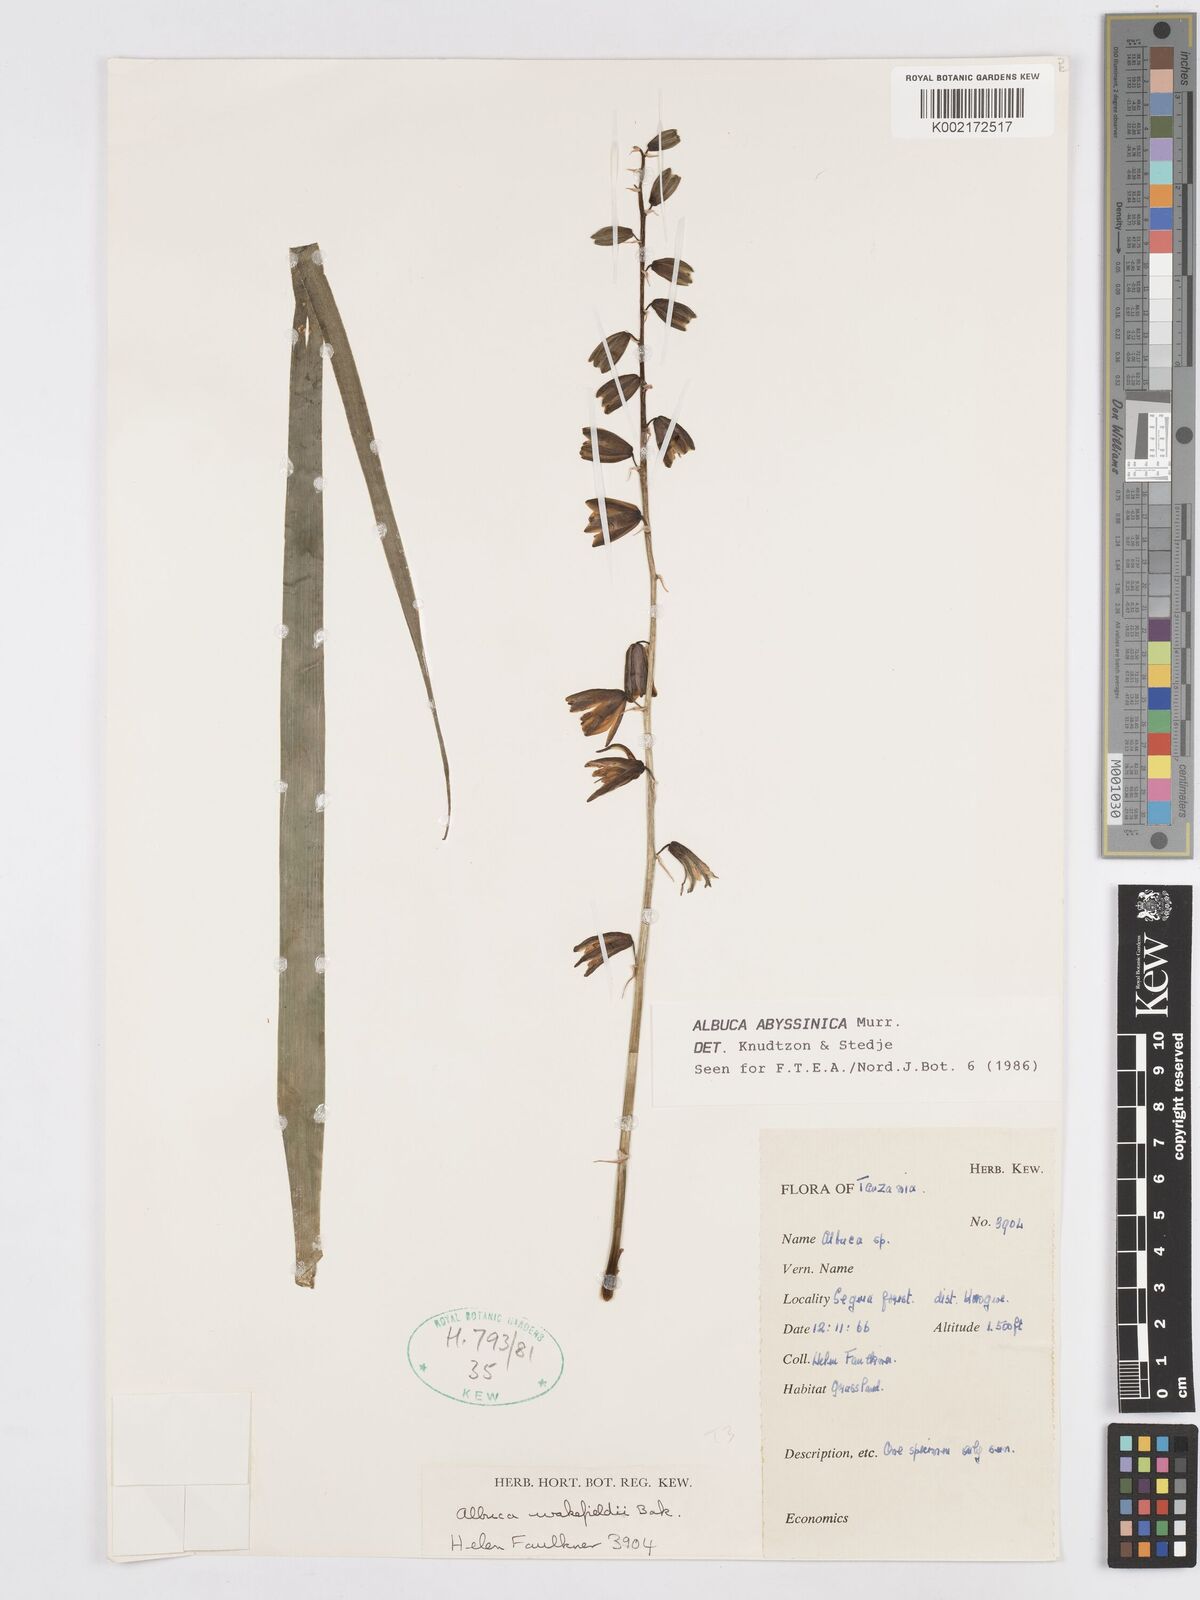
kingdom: Plantae
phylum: Tracheophyta
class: Liliopsida
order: Asparagales
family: Asparagaceae
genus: Albuca
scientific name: Albuca abyssinica
